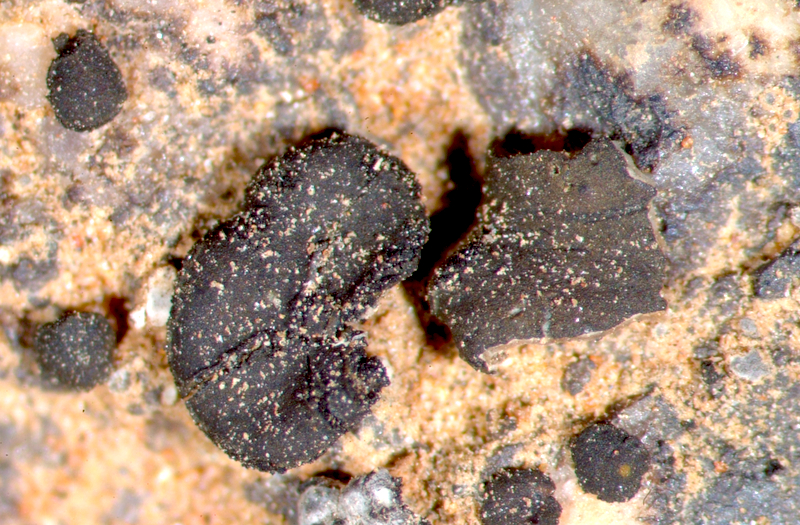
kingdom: Fungi
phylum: Ascomycota
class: Lichinomycetes
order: Lichinales
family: Peltulaceae
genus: Peltula
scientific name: Peltula
